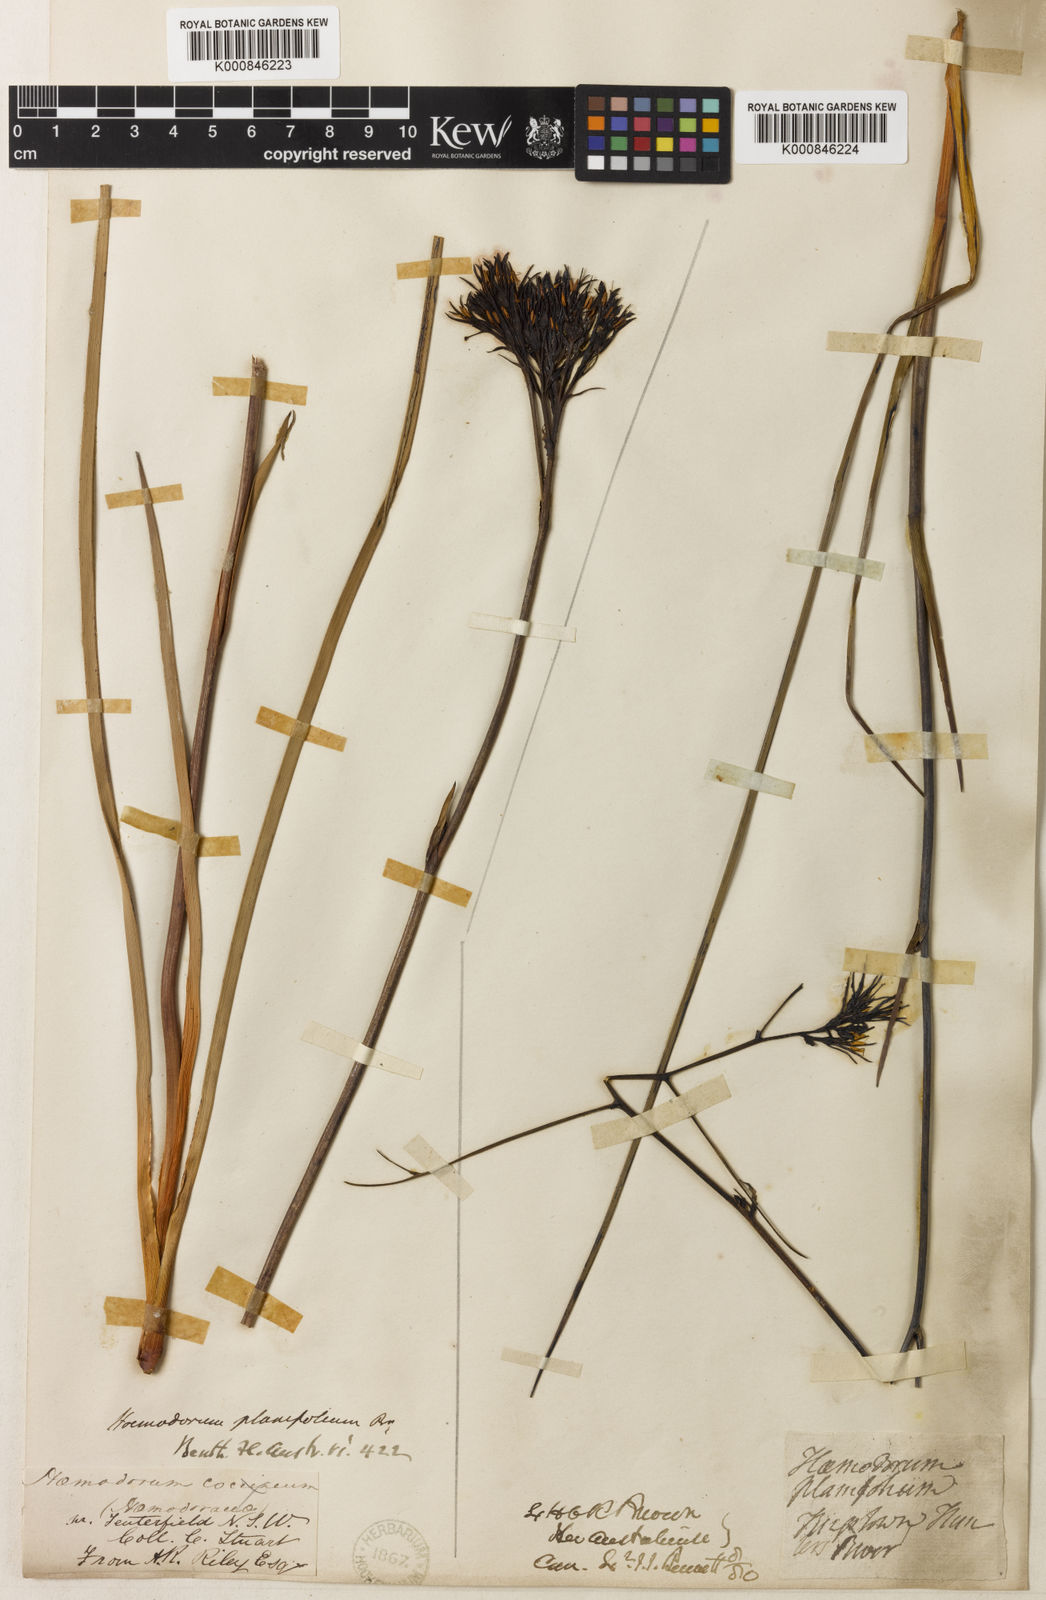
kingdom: Plantae
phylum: Tracheophyta
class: Liliopsida
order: Commelinales
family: Haemodoraceae
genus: Haemodorum
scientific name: Haemodorum planifolium
